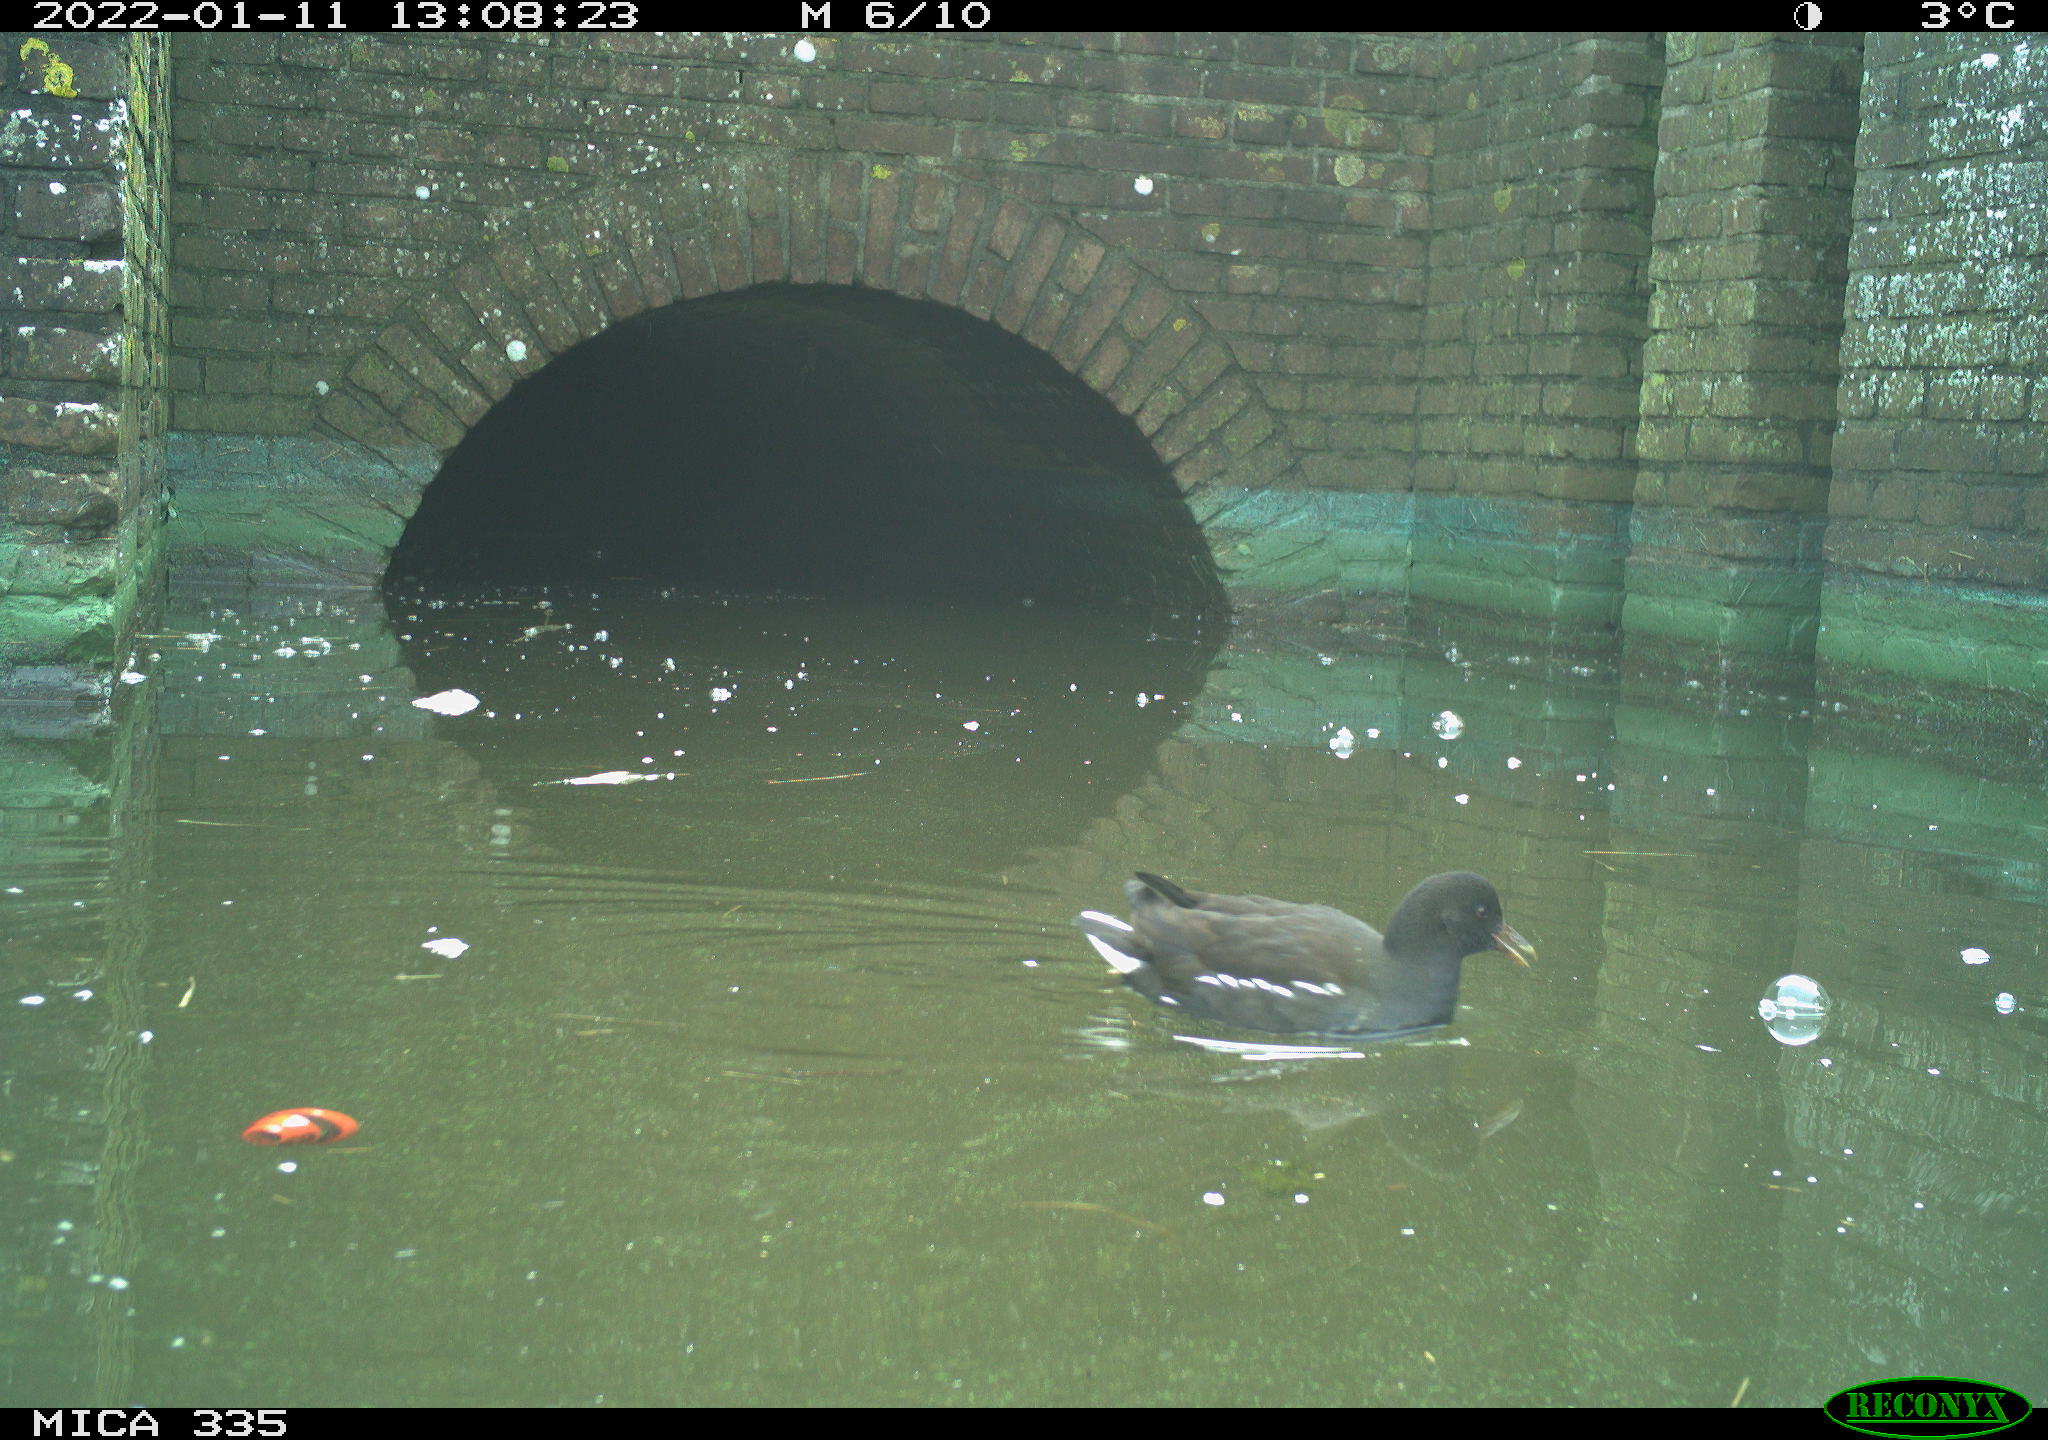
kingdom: Animalia
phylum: Chordata
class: Aves
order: Gruiformes
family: Rallidae
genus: Gallinula
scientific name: Gallinula chloropus
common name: Common moorhen
